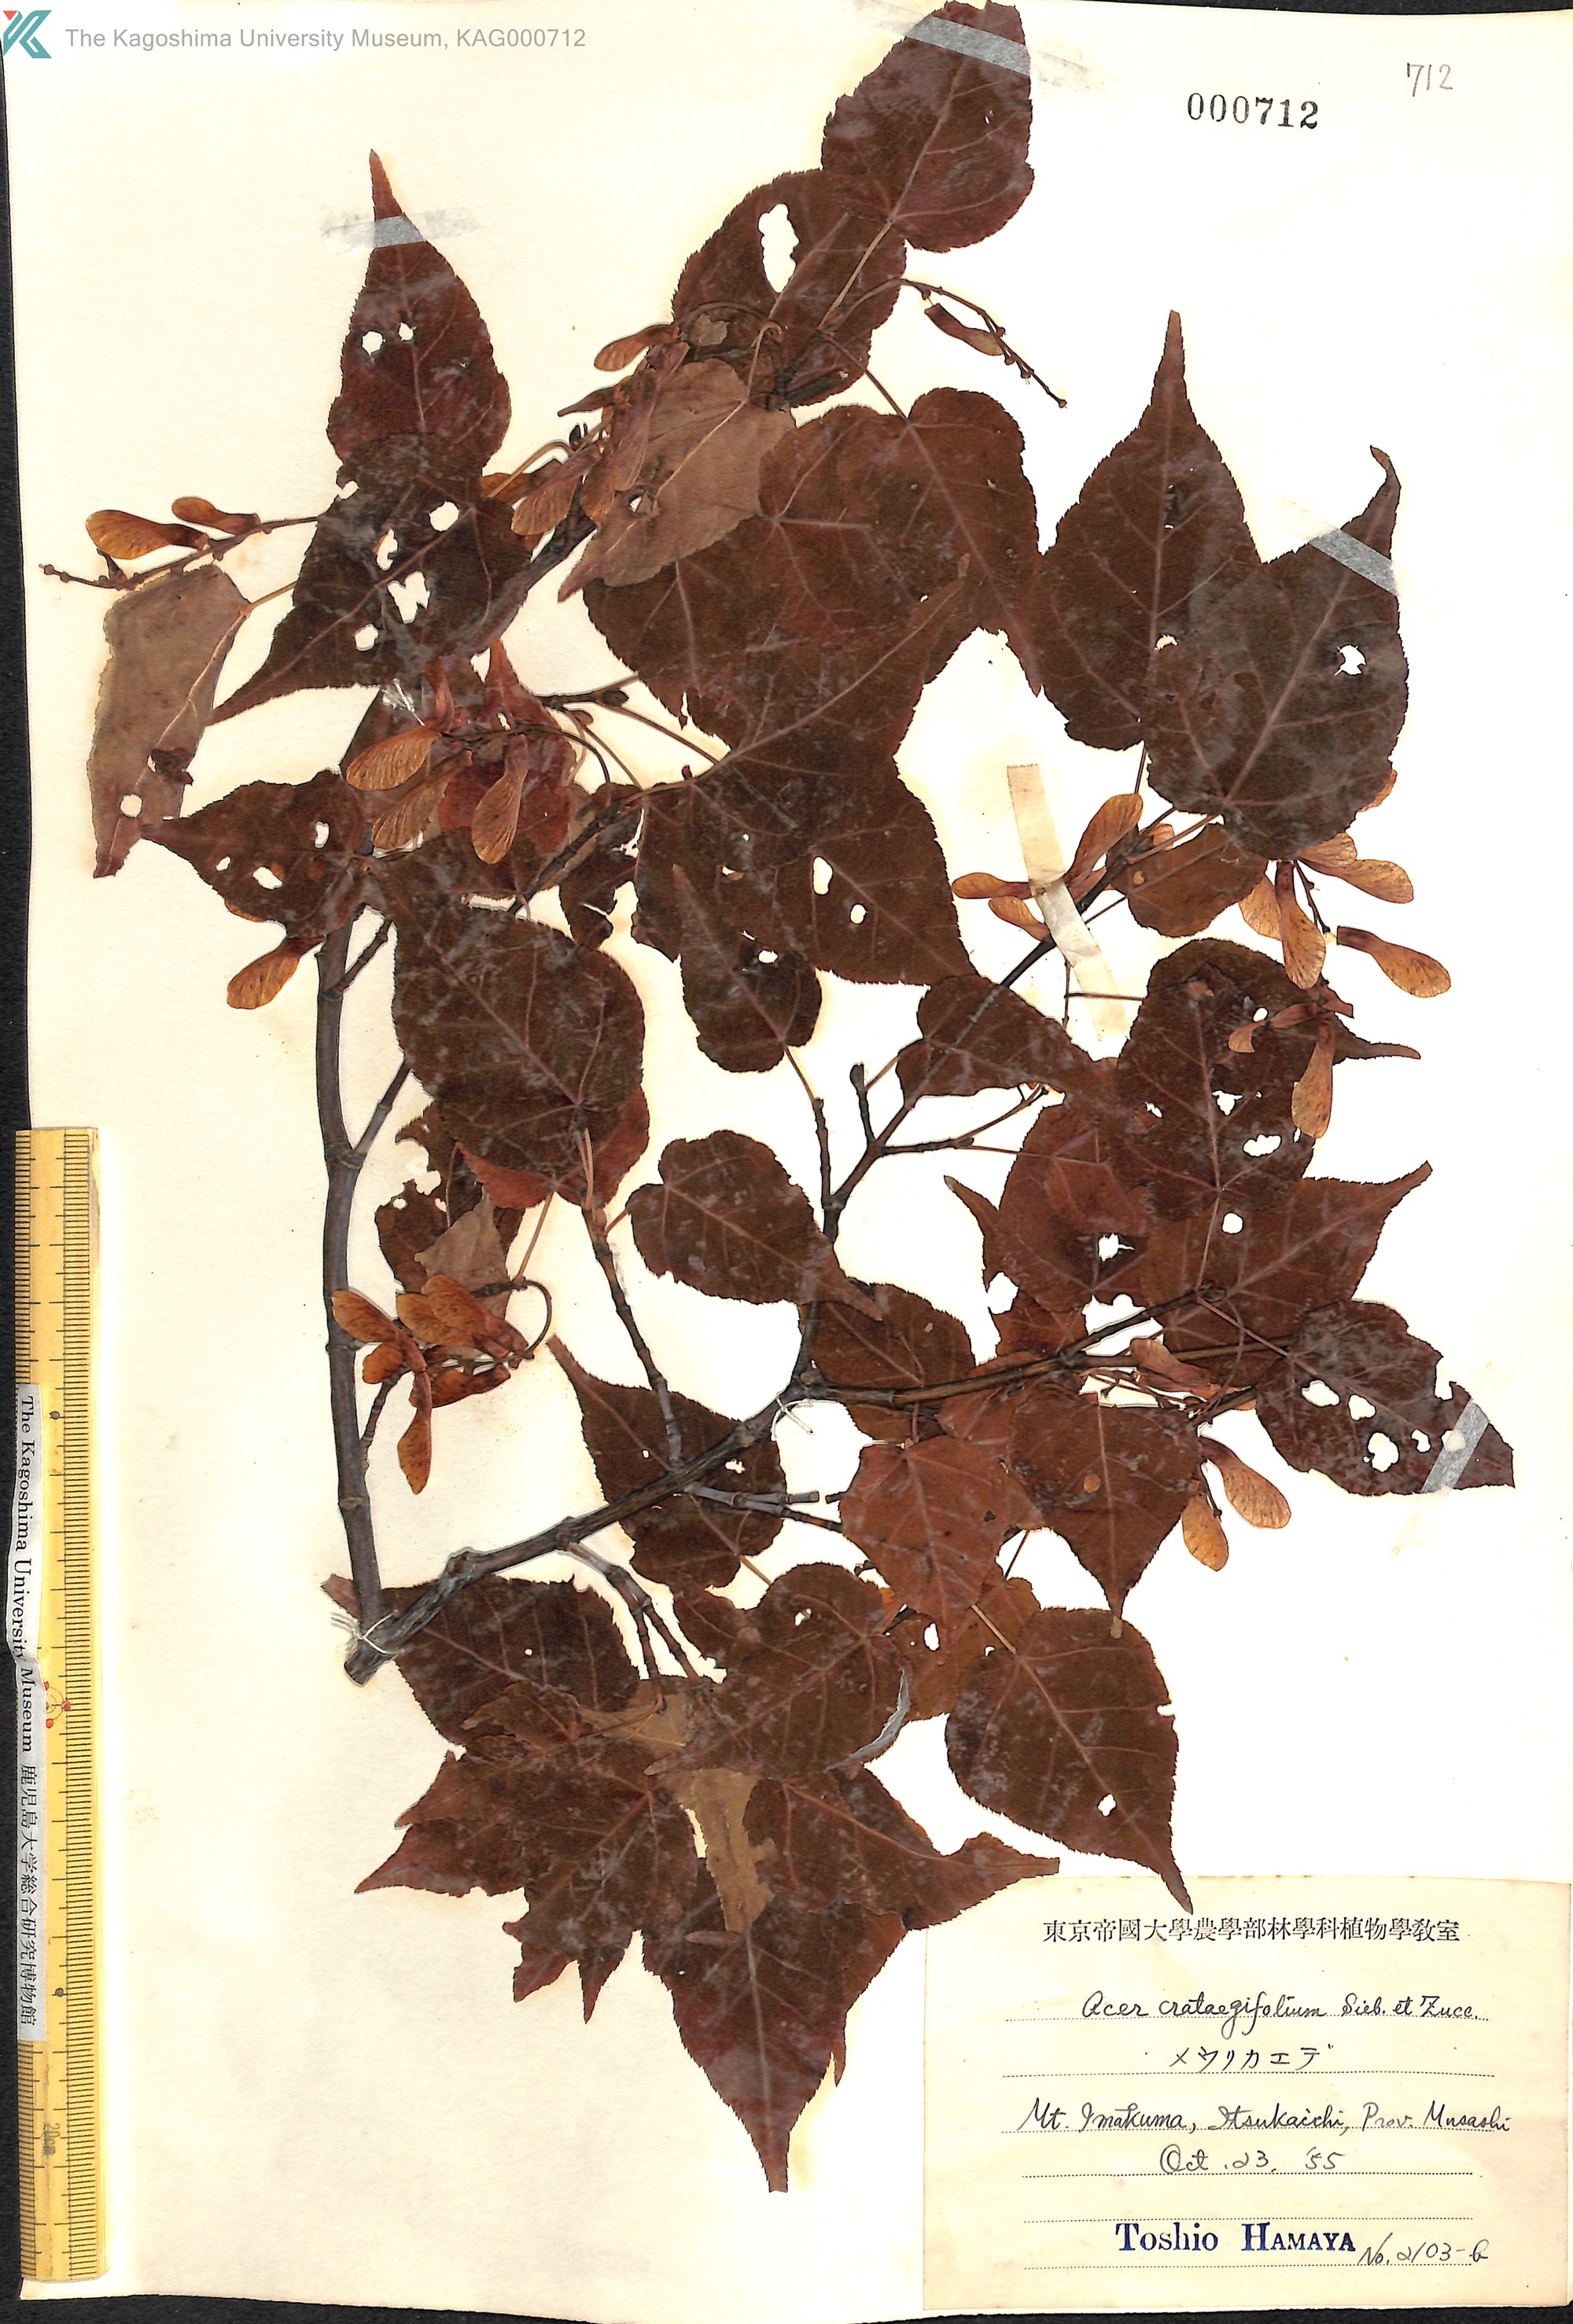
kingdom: Plantae
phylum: Tracheophyta
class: Magnoliopsida
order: Sapindales
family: Sapindaceae
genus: Acer
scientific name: Acer crataegifolium
